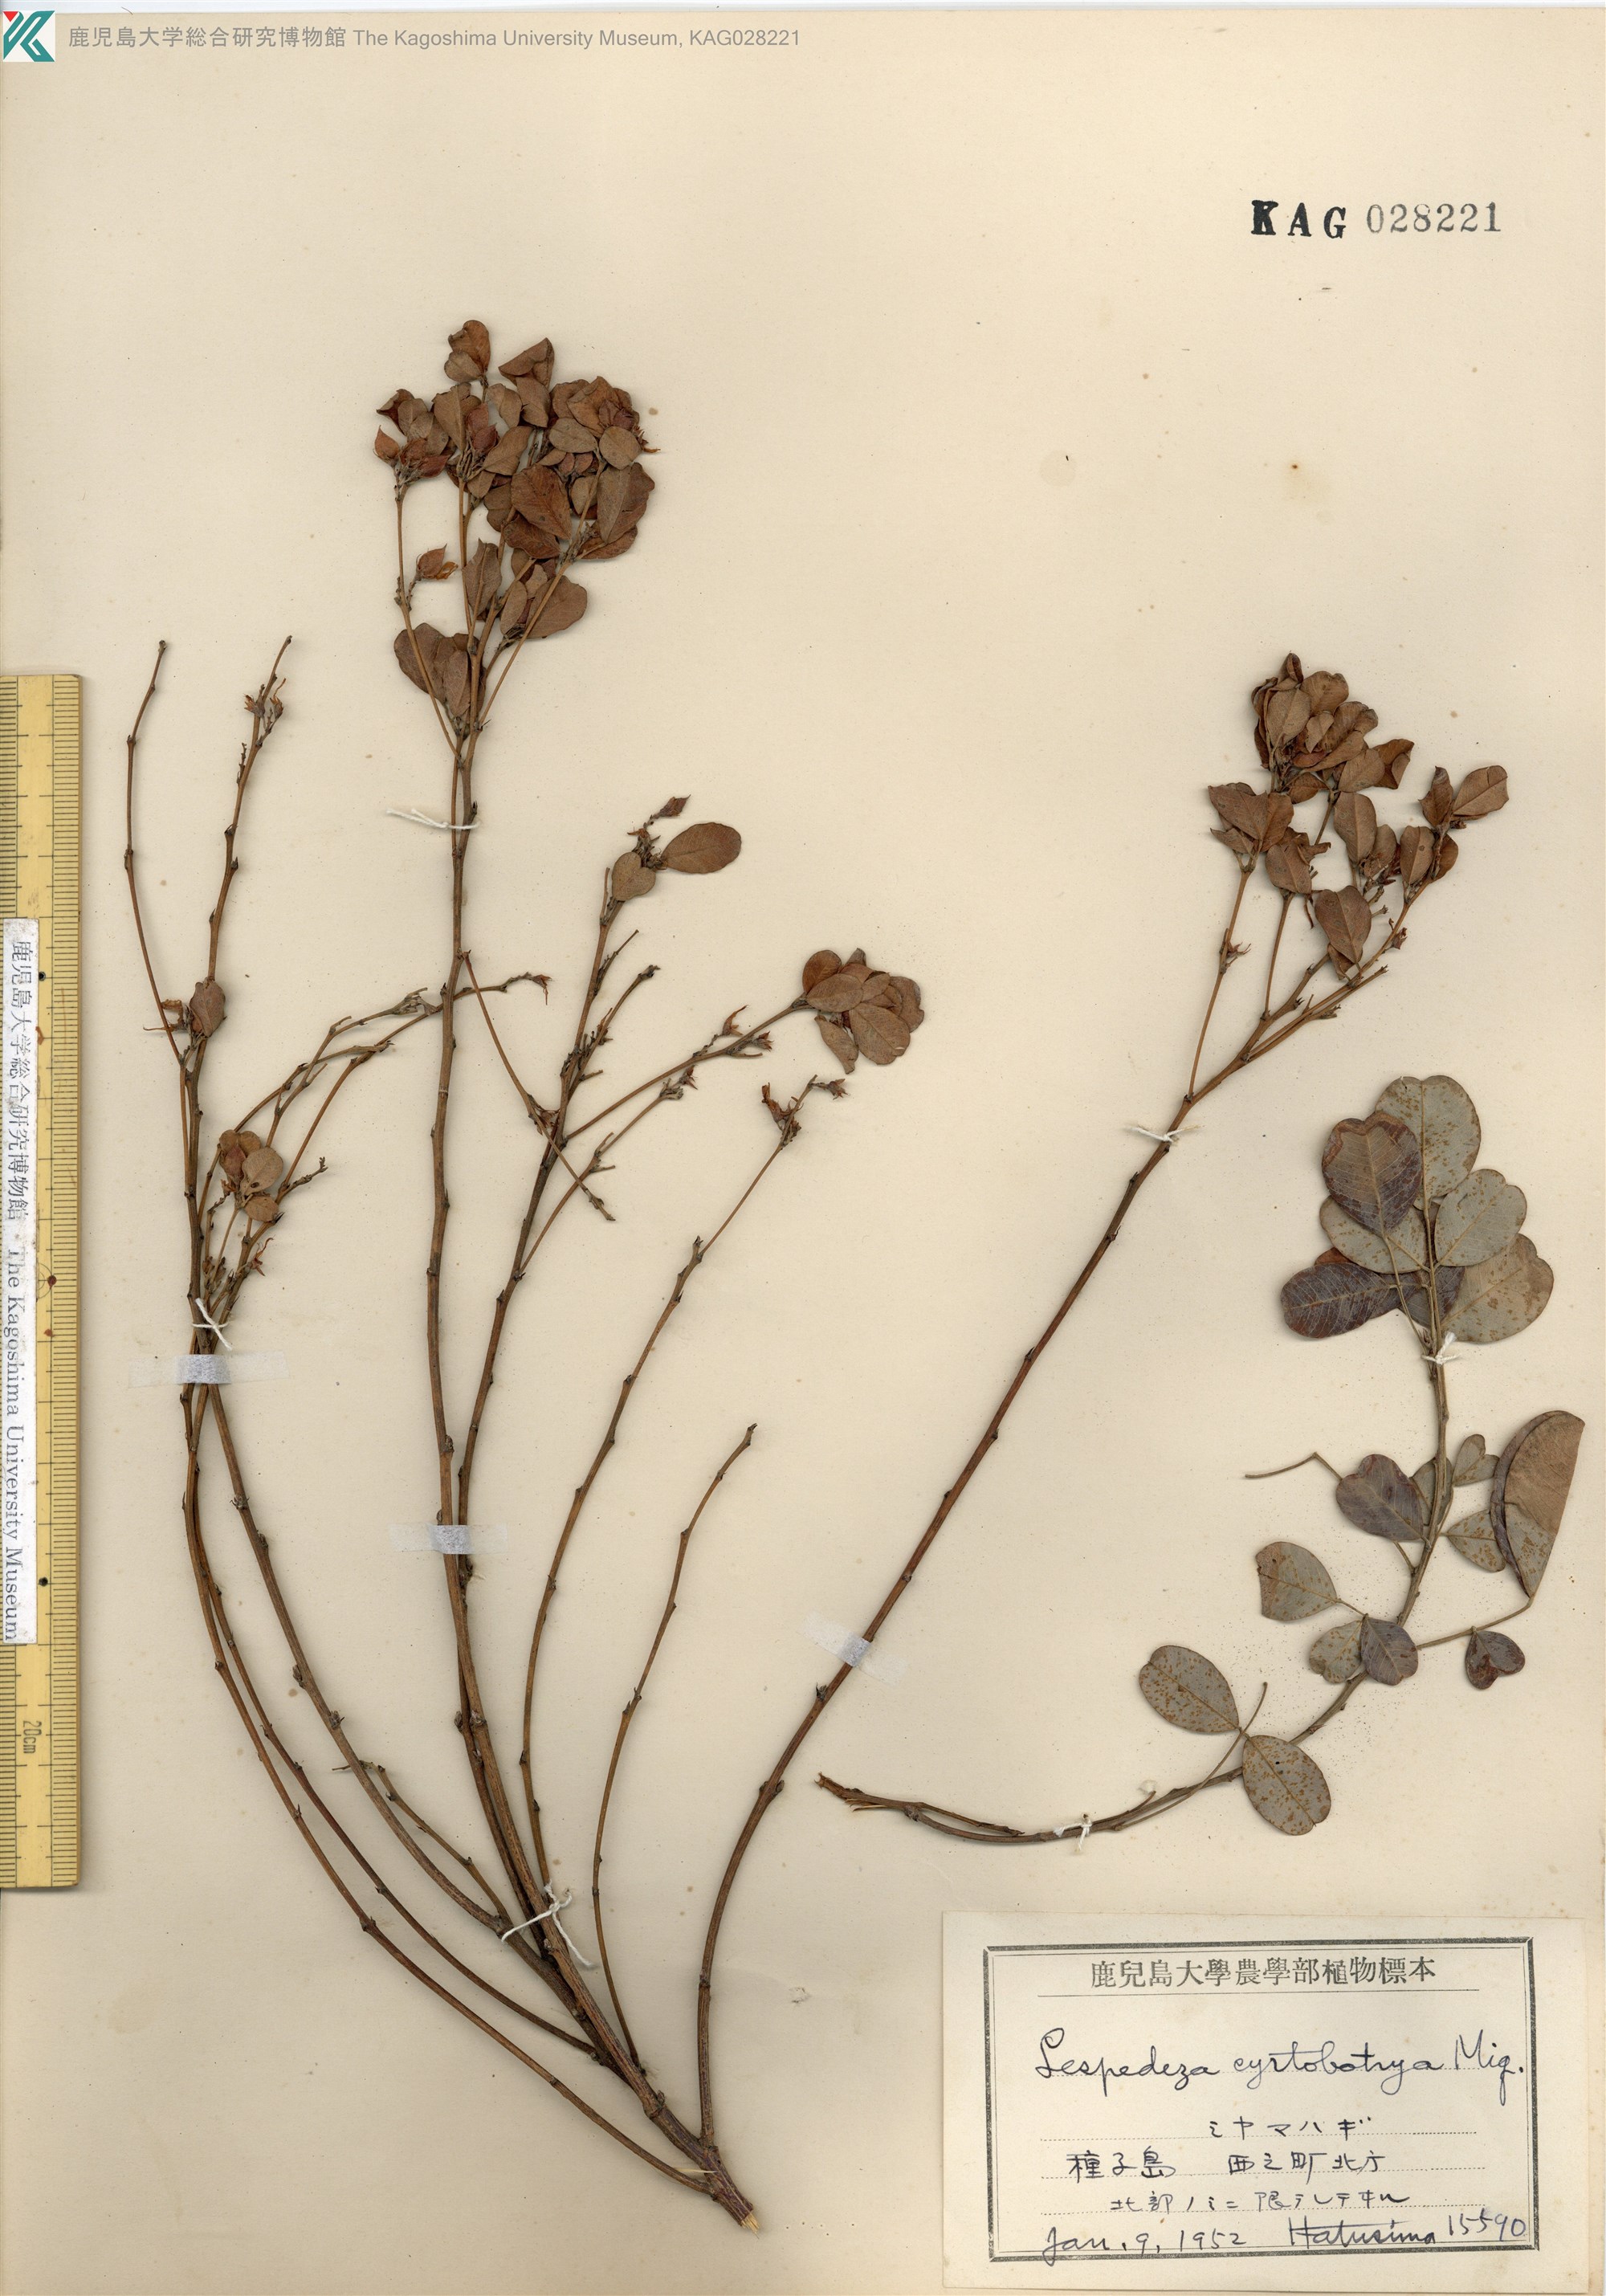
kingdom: Plantae
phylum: Tracheophyta
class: Magnoliopsida
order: Fabales
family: Fabaceae
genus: Lespedeza
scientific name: Lespedeza cyrtobotrya
